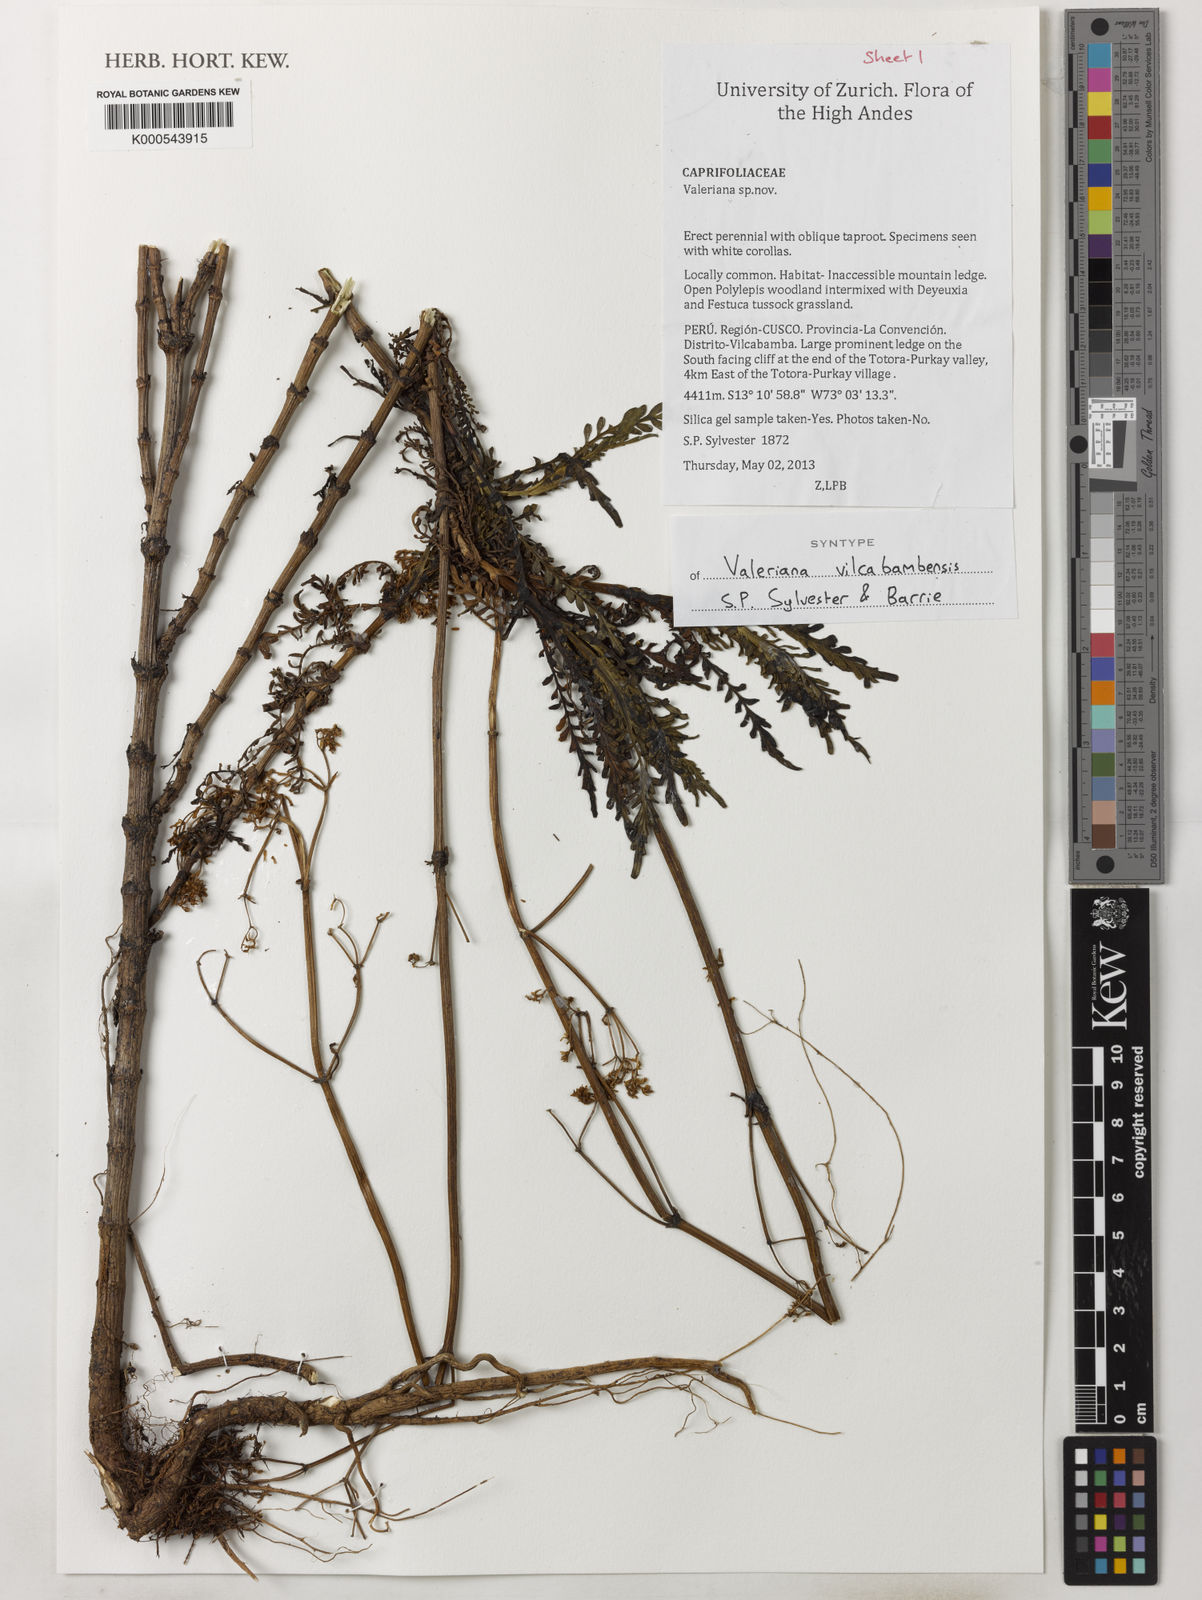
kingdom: Plantae
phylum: Tracheophyta
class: Magnoliopsida
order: Dipsacales
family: Caprifoliaceae
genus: Valeriana
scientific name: Valeriana
